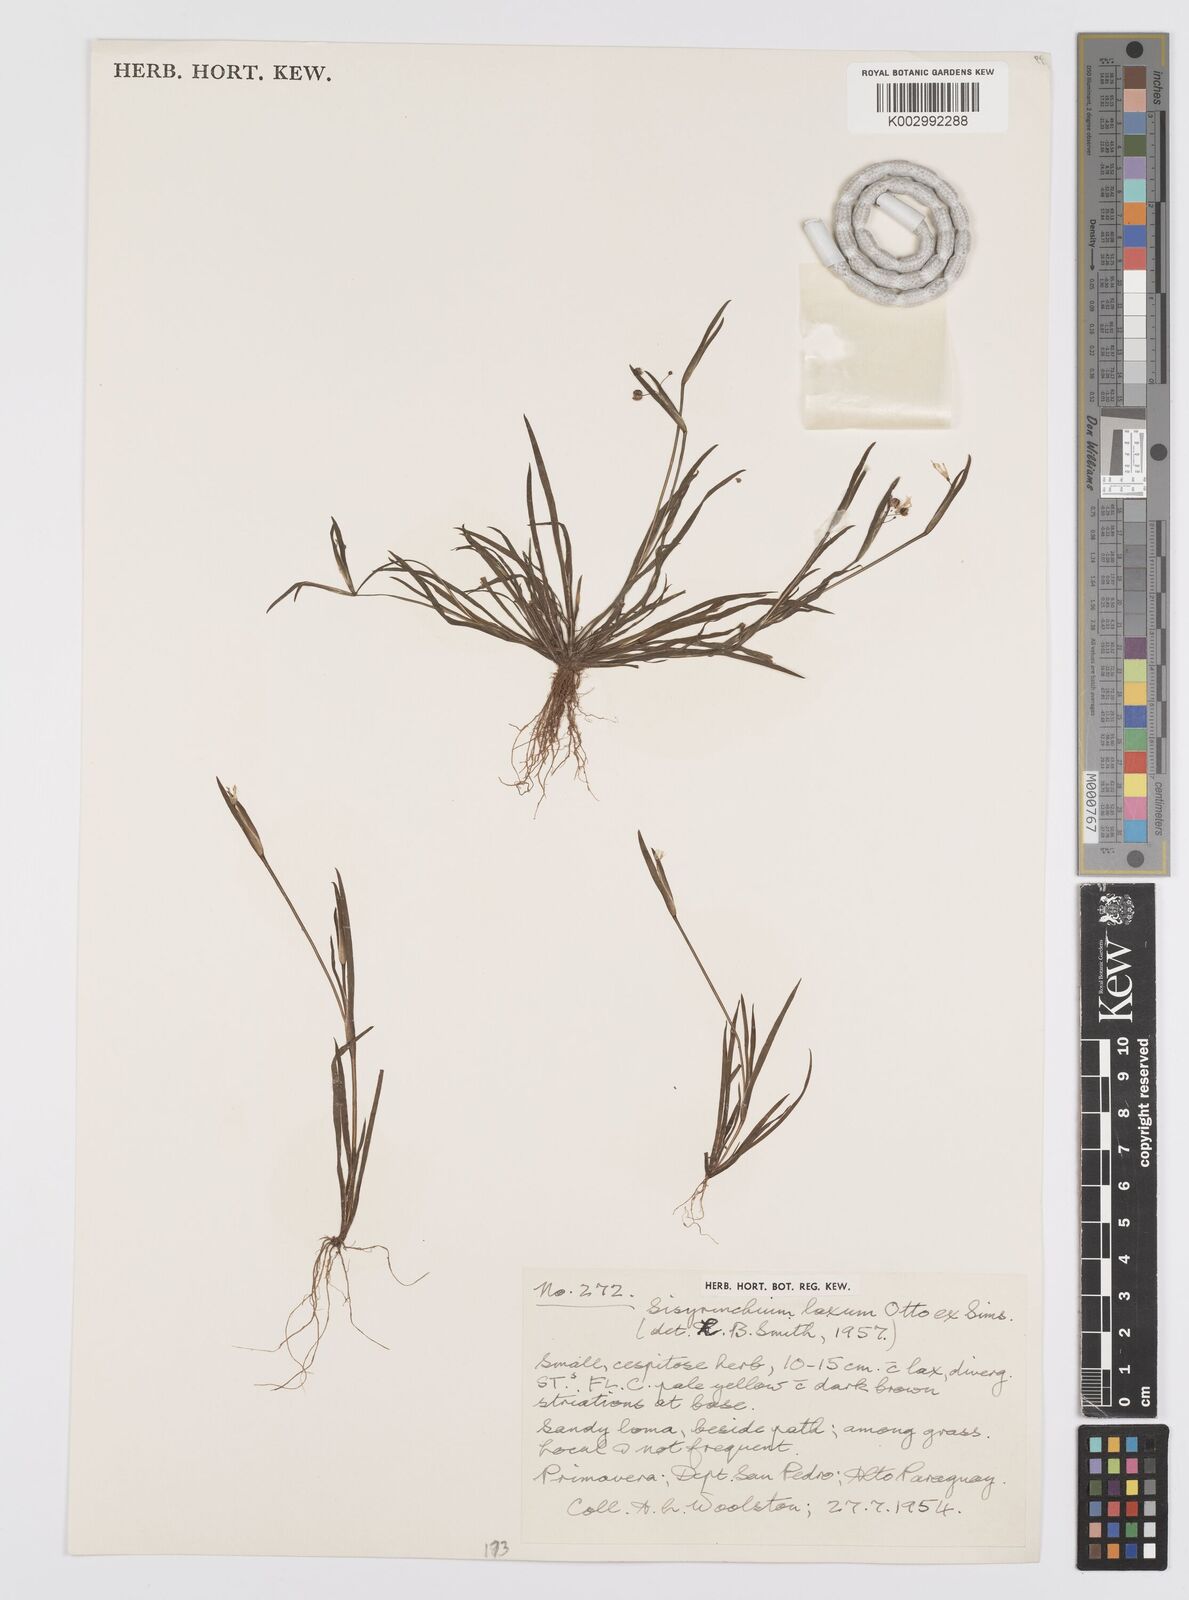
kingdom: Plantae
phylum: Tracheophyta
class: Liliopsida
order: Asparagales
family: Iridaceae
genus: Sisyrinchium
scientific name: Sisyrinchium micranthum
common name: Bermuda pigroot
